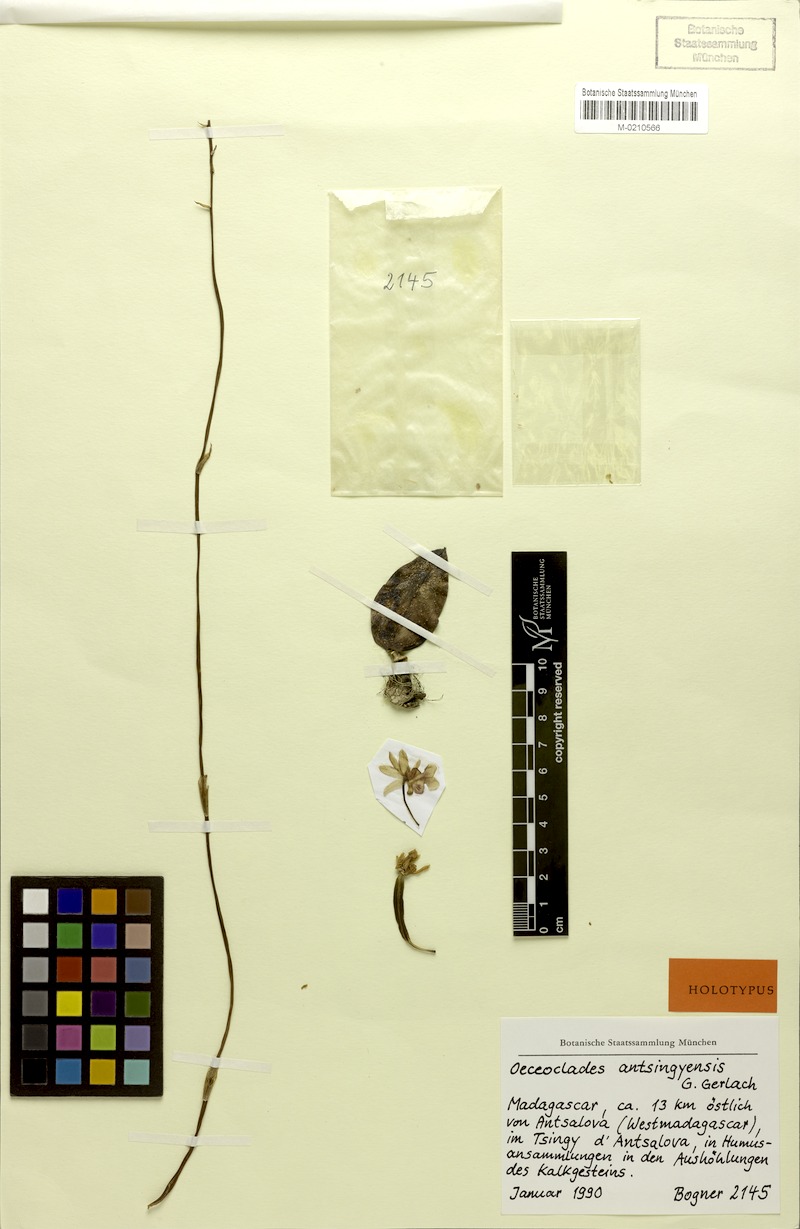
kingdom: Plantae
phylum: Tracheophyta
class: Liliopsida
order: Asparagales
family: Orchidaceae
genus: Eulophia
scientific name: Eulophia antsingyensis
